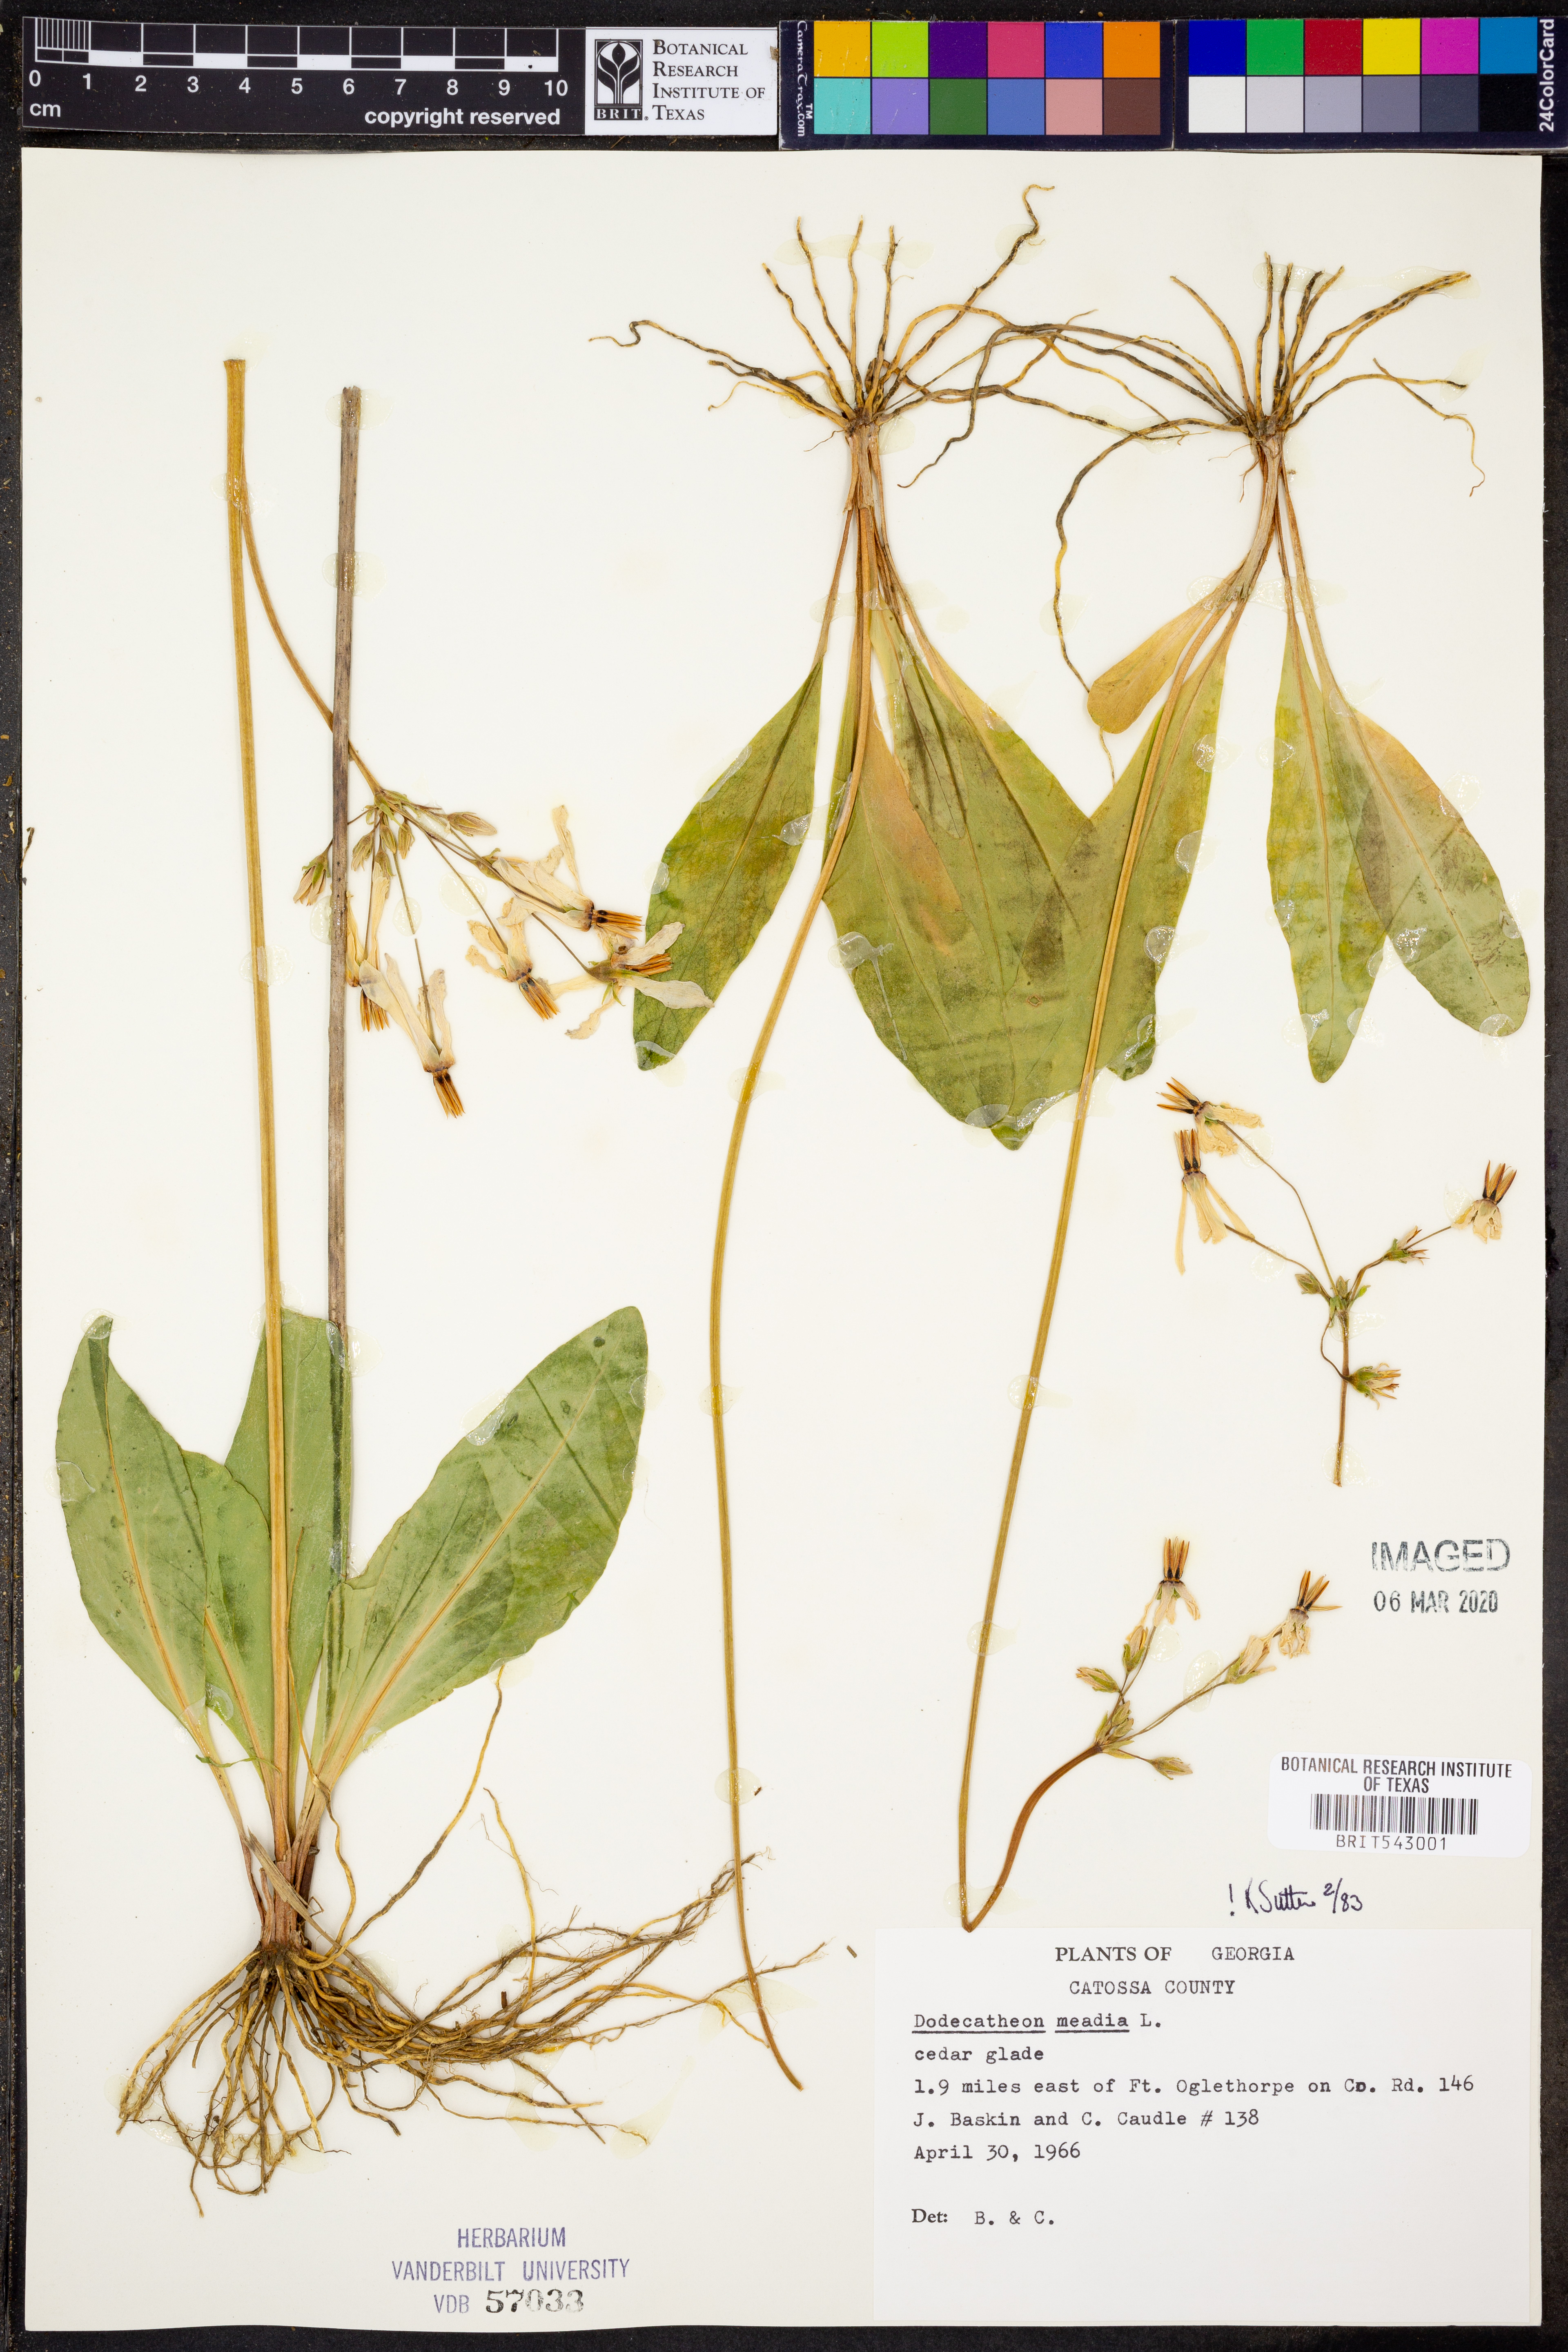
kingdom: Plantae
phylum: Tracheophyta
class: Magnoliopsida
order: Ericales
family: Primulaceae
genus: Dodecatheon
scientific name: Dodecatheon meadia
